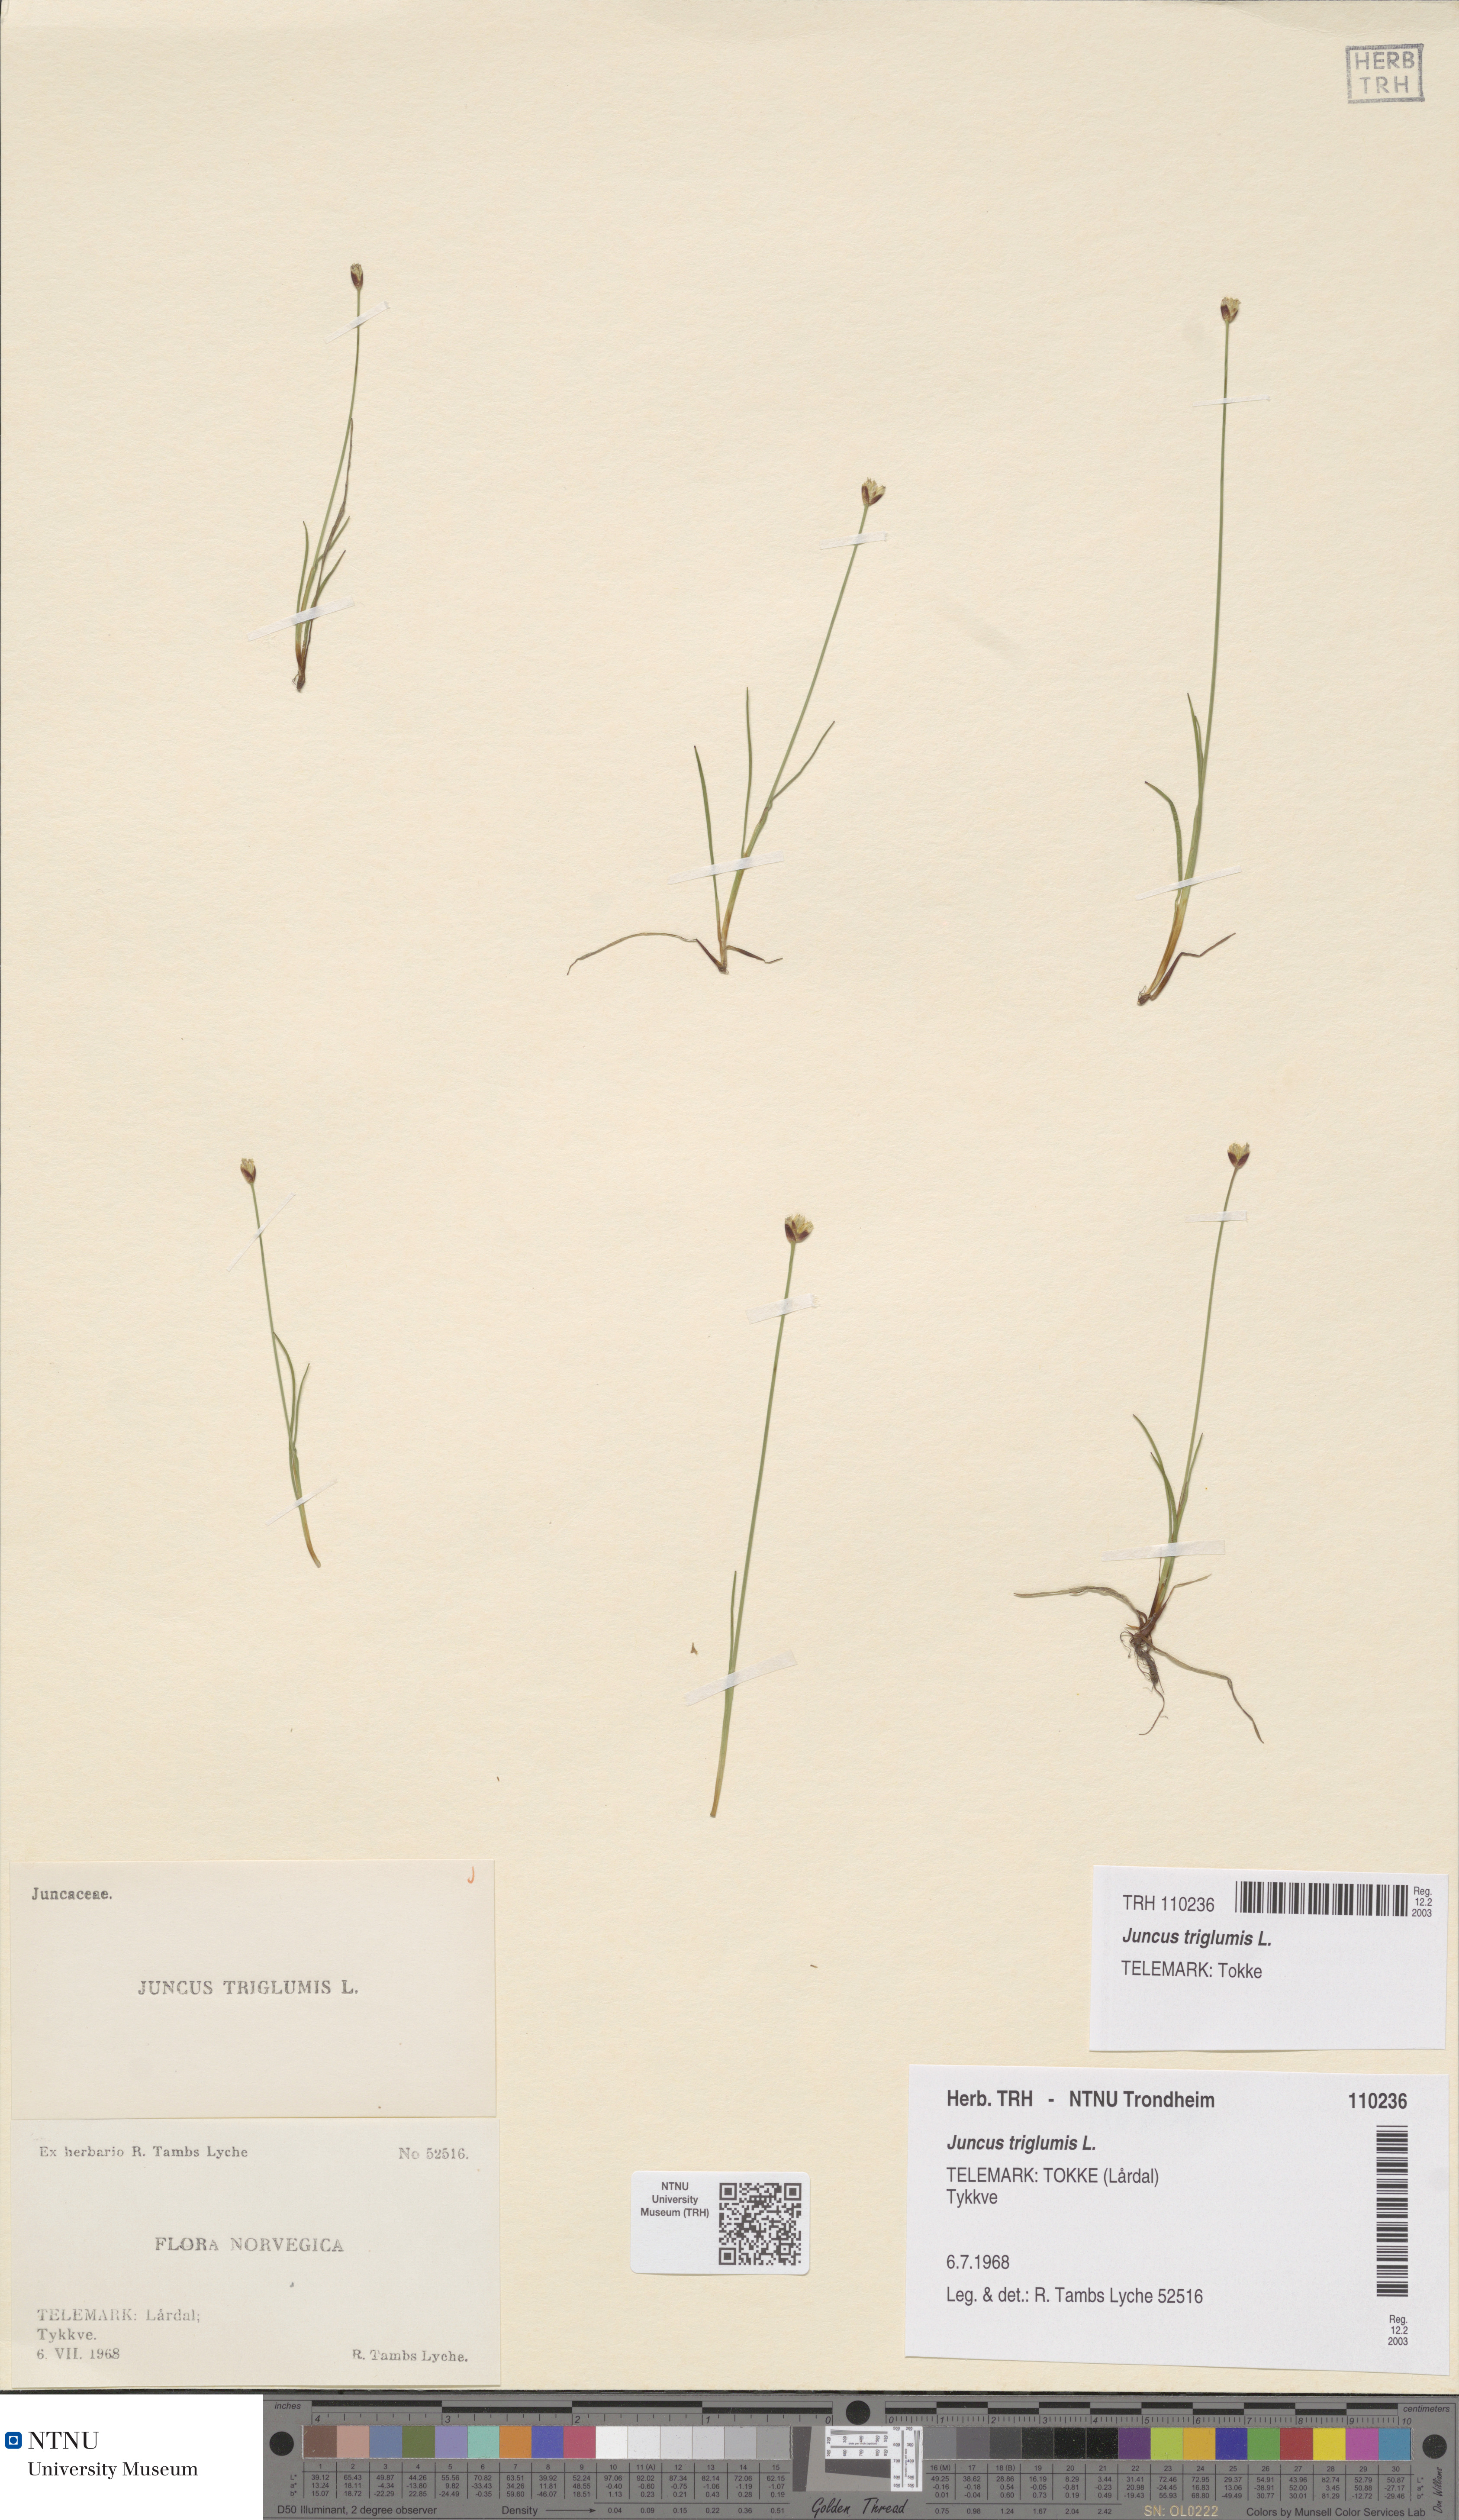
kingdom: Plantae
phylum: Tracheophyta
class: Liliopsida
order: Poales
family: Juncaceae
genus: Juncus
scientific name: Juncus triglumis
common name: Three-flowered rush
